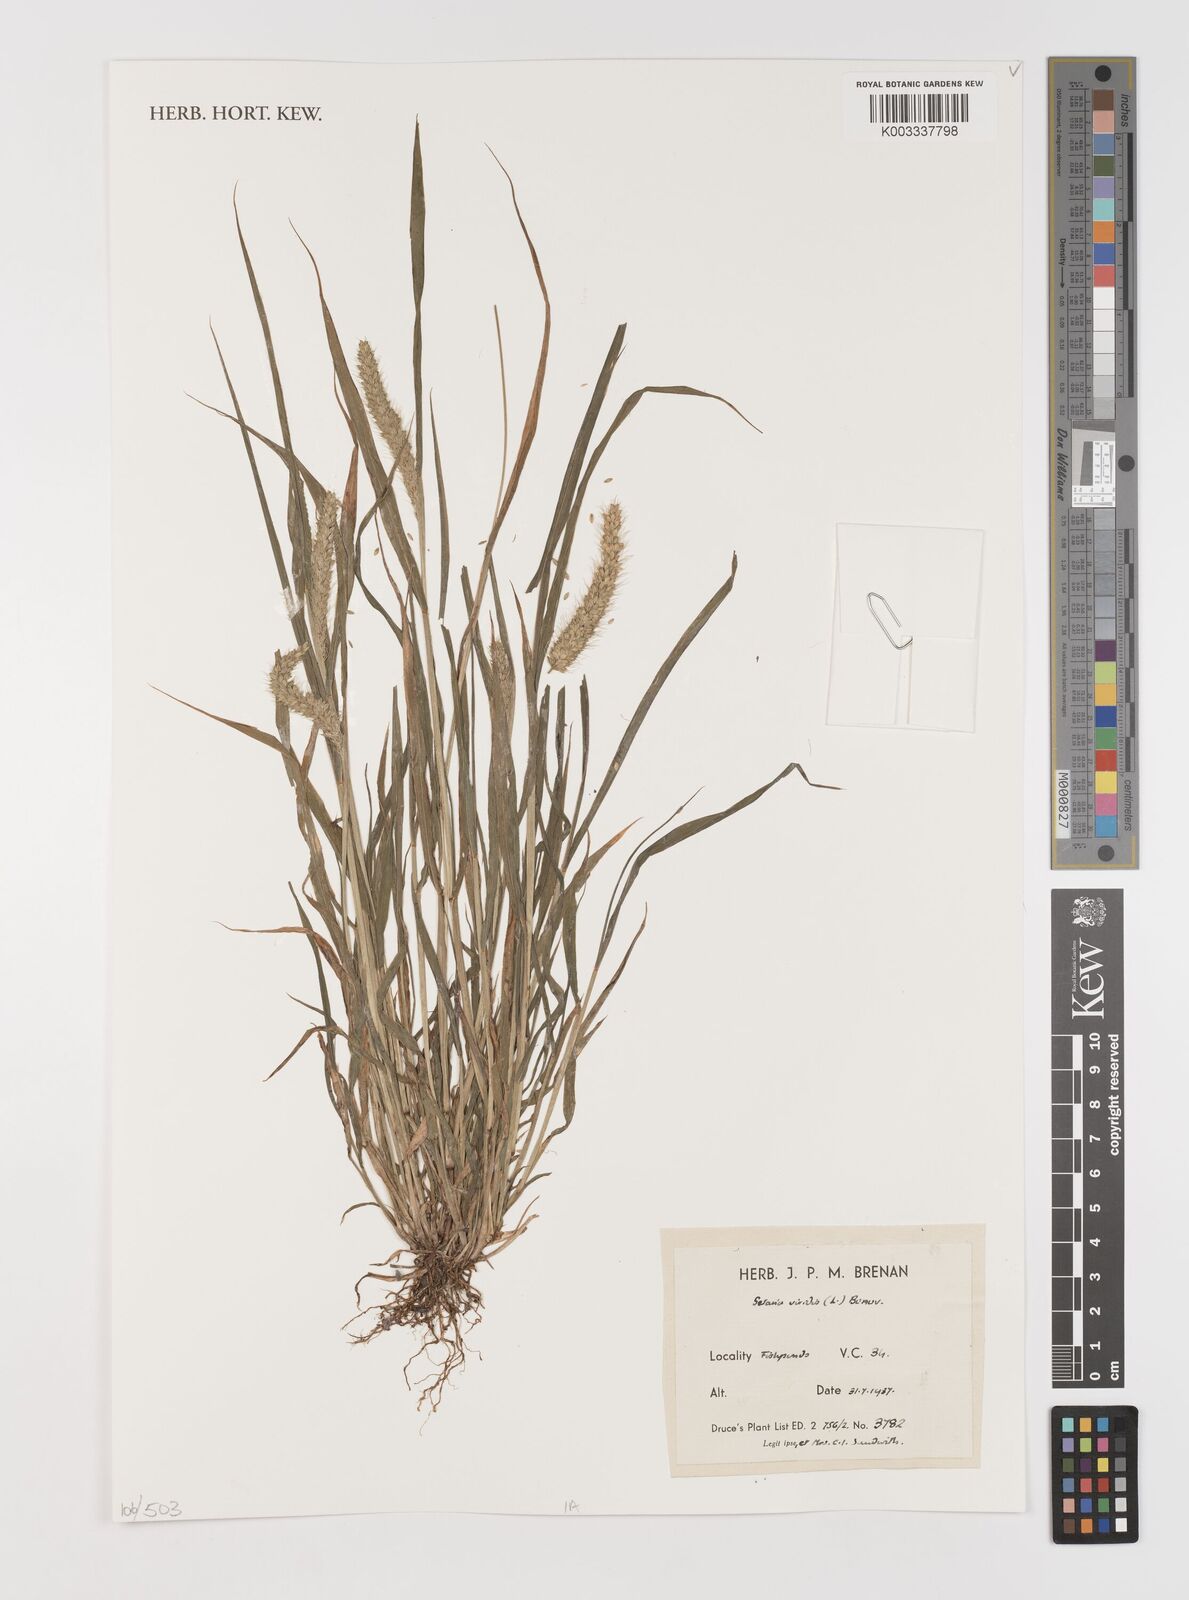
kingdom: Plantae
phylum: Tracheophyta
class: Liliopsida
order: Poales
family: Poaceae
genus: Setaria
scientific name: Setaria viridis
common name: Green bristlegrass
